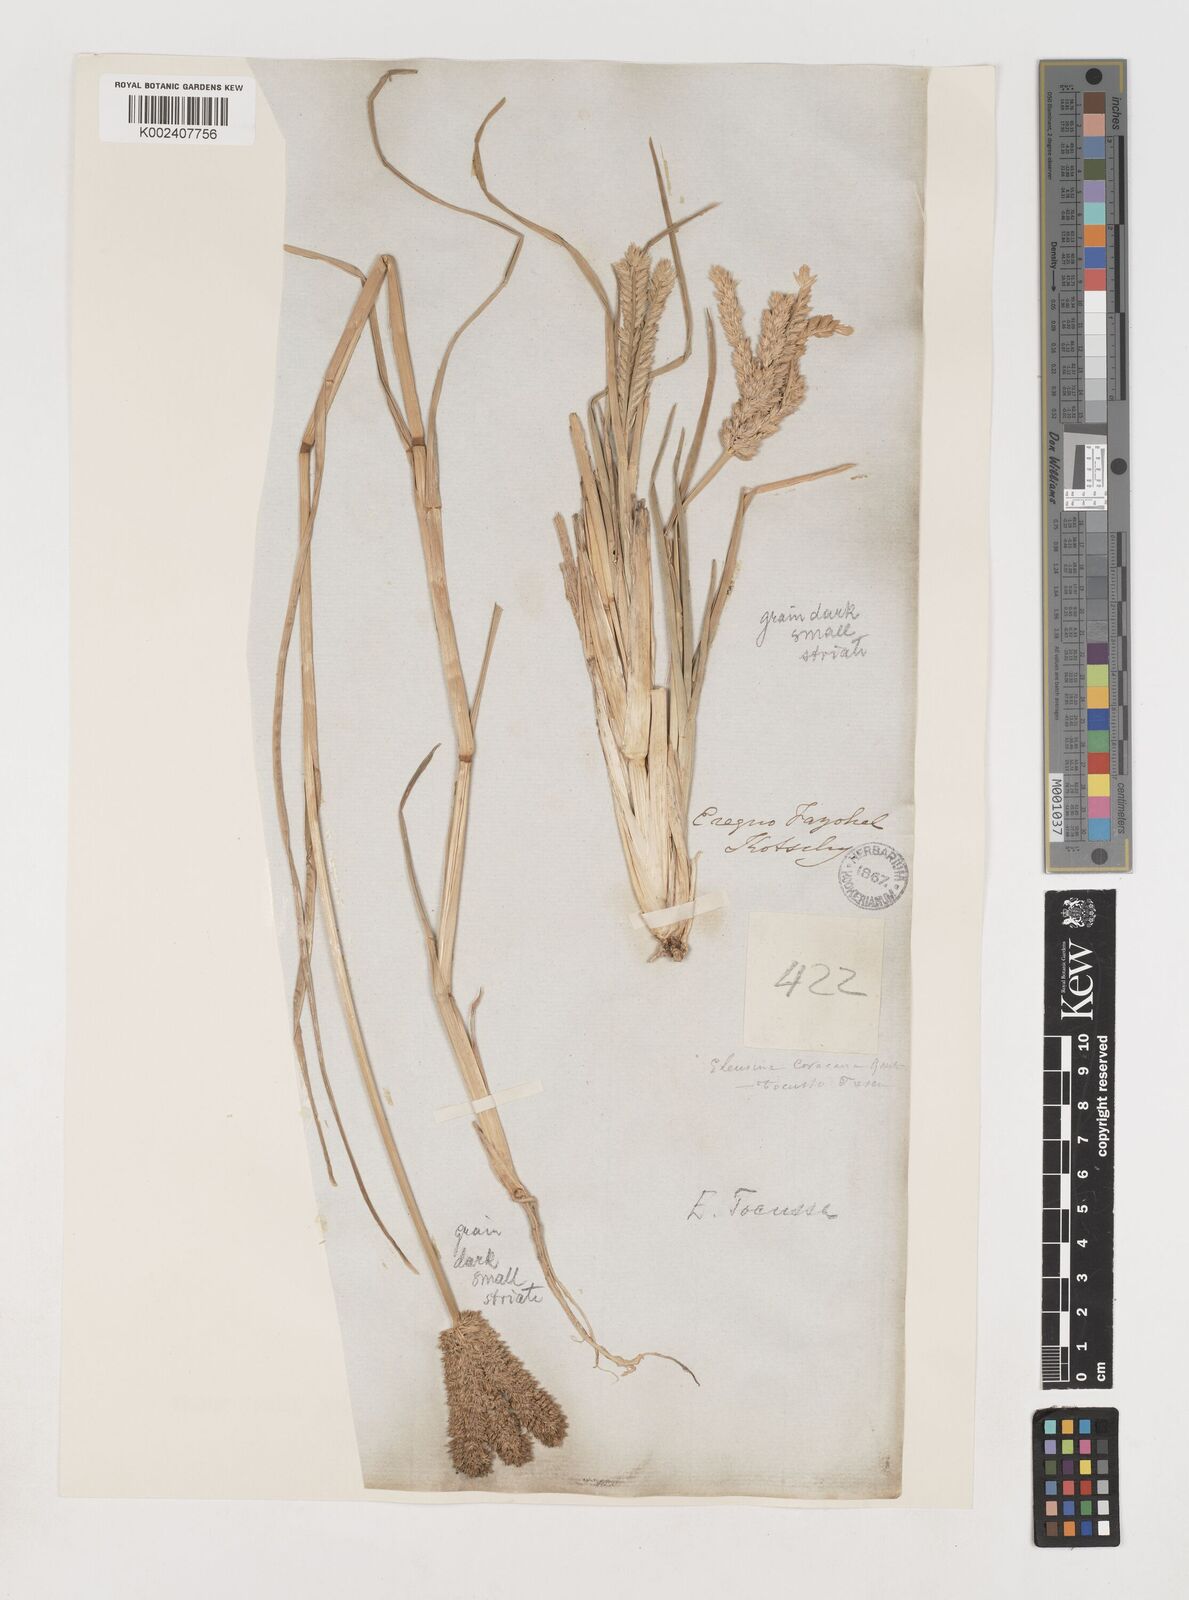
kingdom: Plantae
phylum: Tracheophyta
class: Liliopsida
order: Poales
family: Poaceae
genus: Eleusine
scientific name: Eleusine coracana
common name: Finger millet
